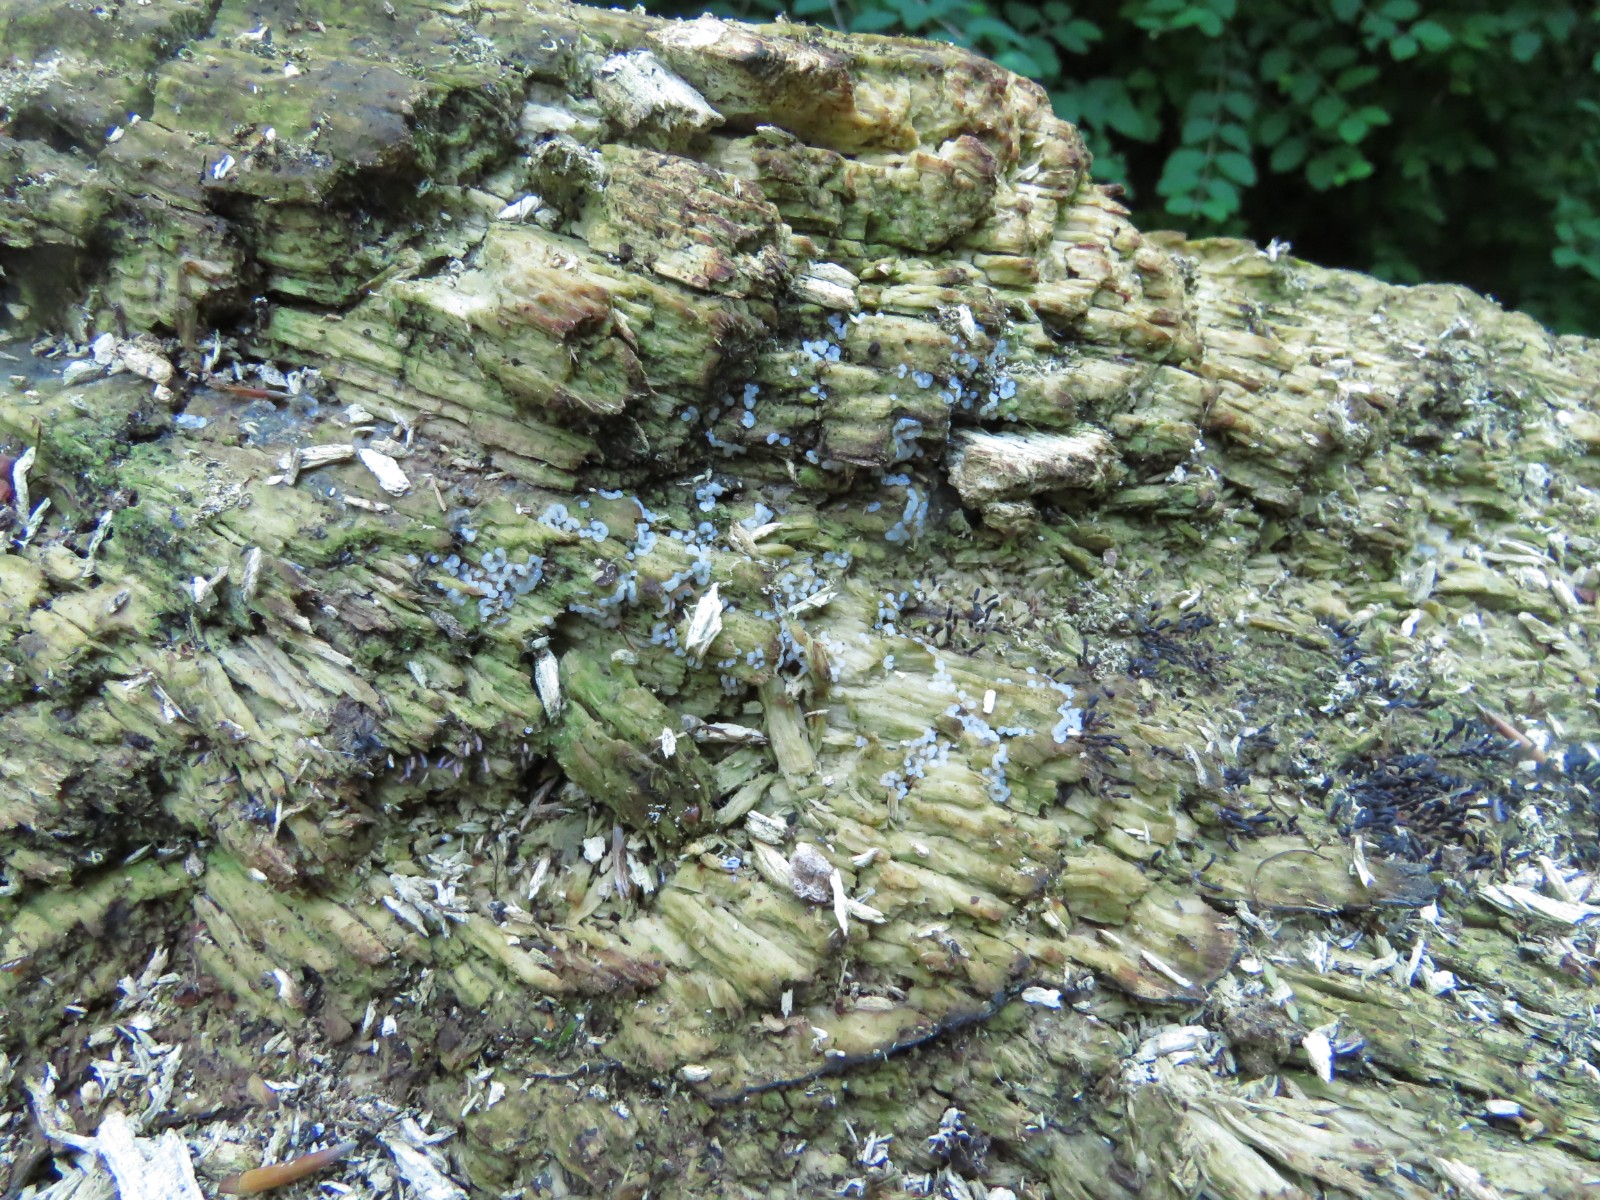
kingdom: Protozoa
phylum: Mycetozoa
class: Myxomycetes
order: Stemonitidales
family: Stemonitidaceae
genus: Stemonitopsis
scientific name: Stemonitopsis typhina
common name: skinnende støvkølle
